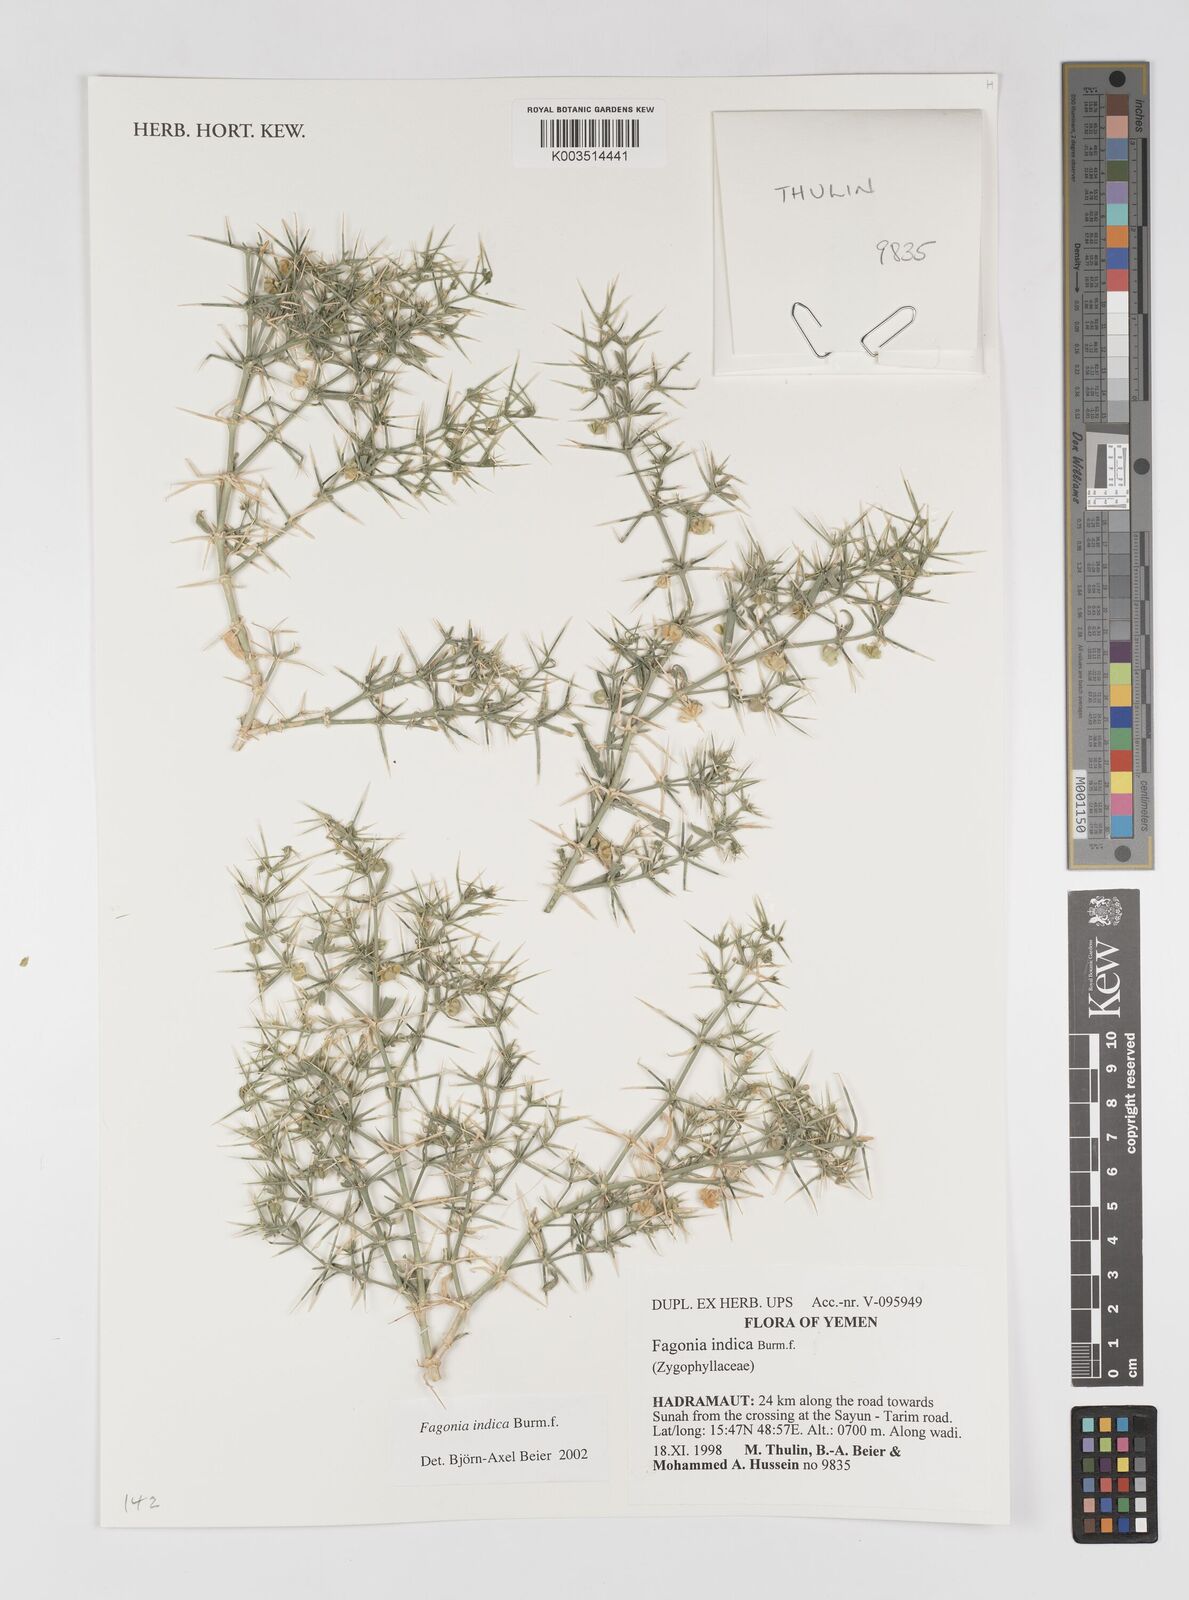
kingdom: Plantae
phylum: Tracheophyta
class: Magnoliopsida
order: Zygophyllales
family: Zygophyllaceae
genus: Fagonia
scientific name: Fagonia indica
